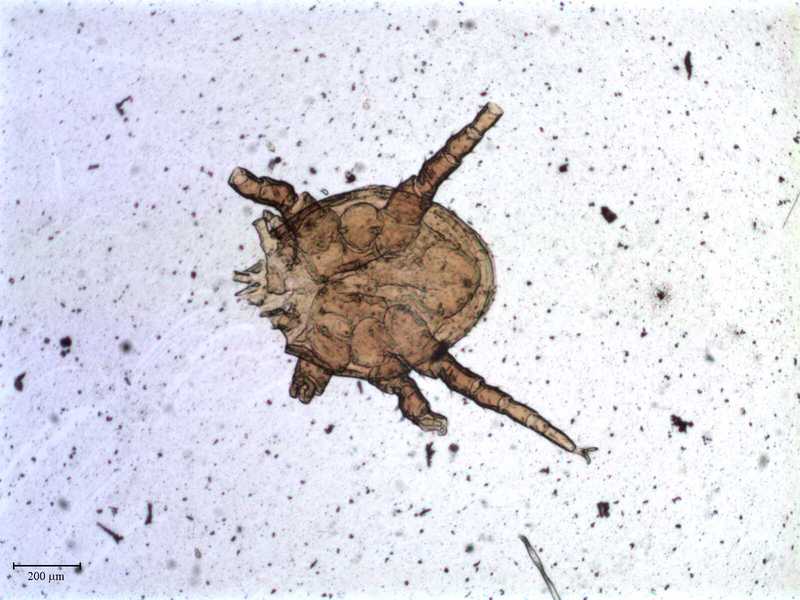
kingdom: Animalia
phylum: Arthropoda
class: Arachnida
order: Mesostigmata
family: Macrochelidae
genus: Trigonholaspis
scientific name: Trigonholaspis
